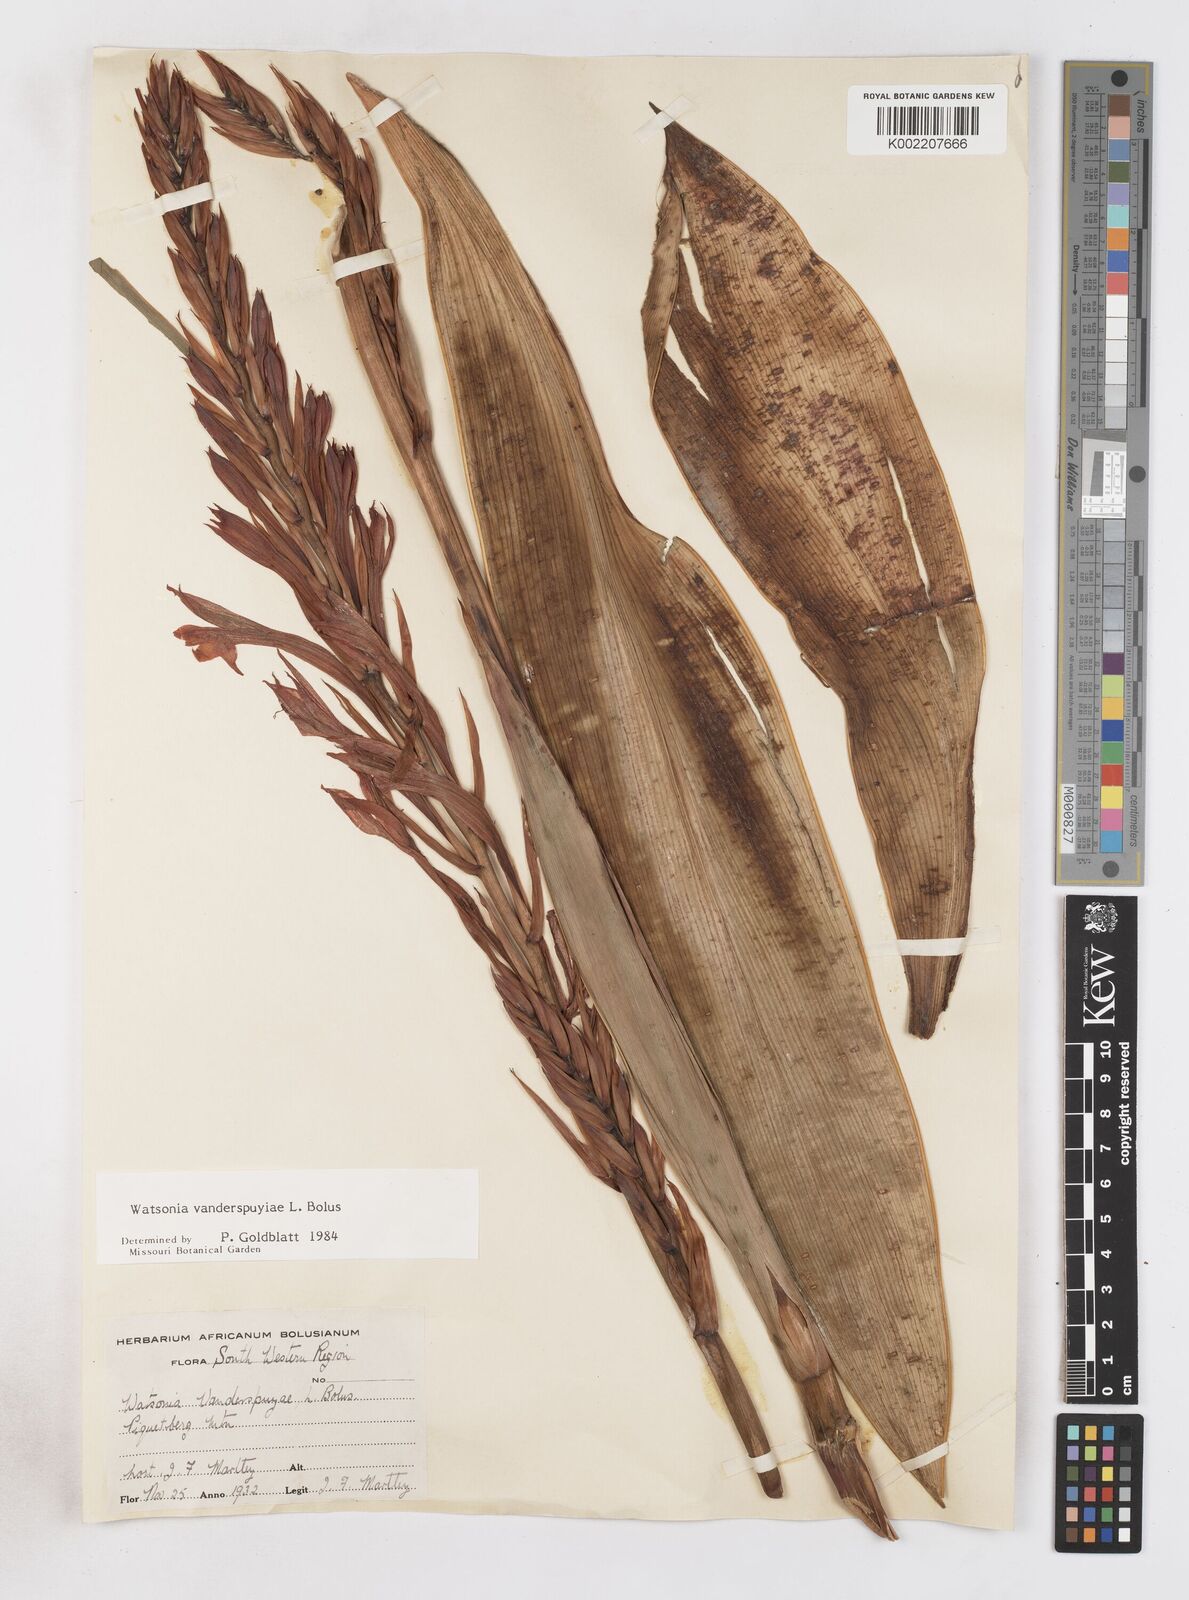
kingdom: Plantae
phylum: Tracheophyta
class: Liliopsida
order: Asparagales
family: Iridaceae
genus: Watsonia
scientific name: Watsonia vanderspuyae
